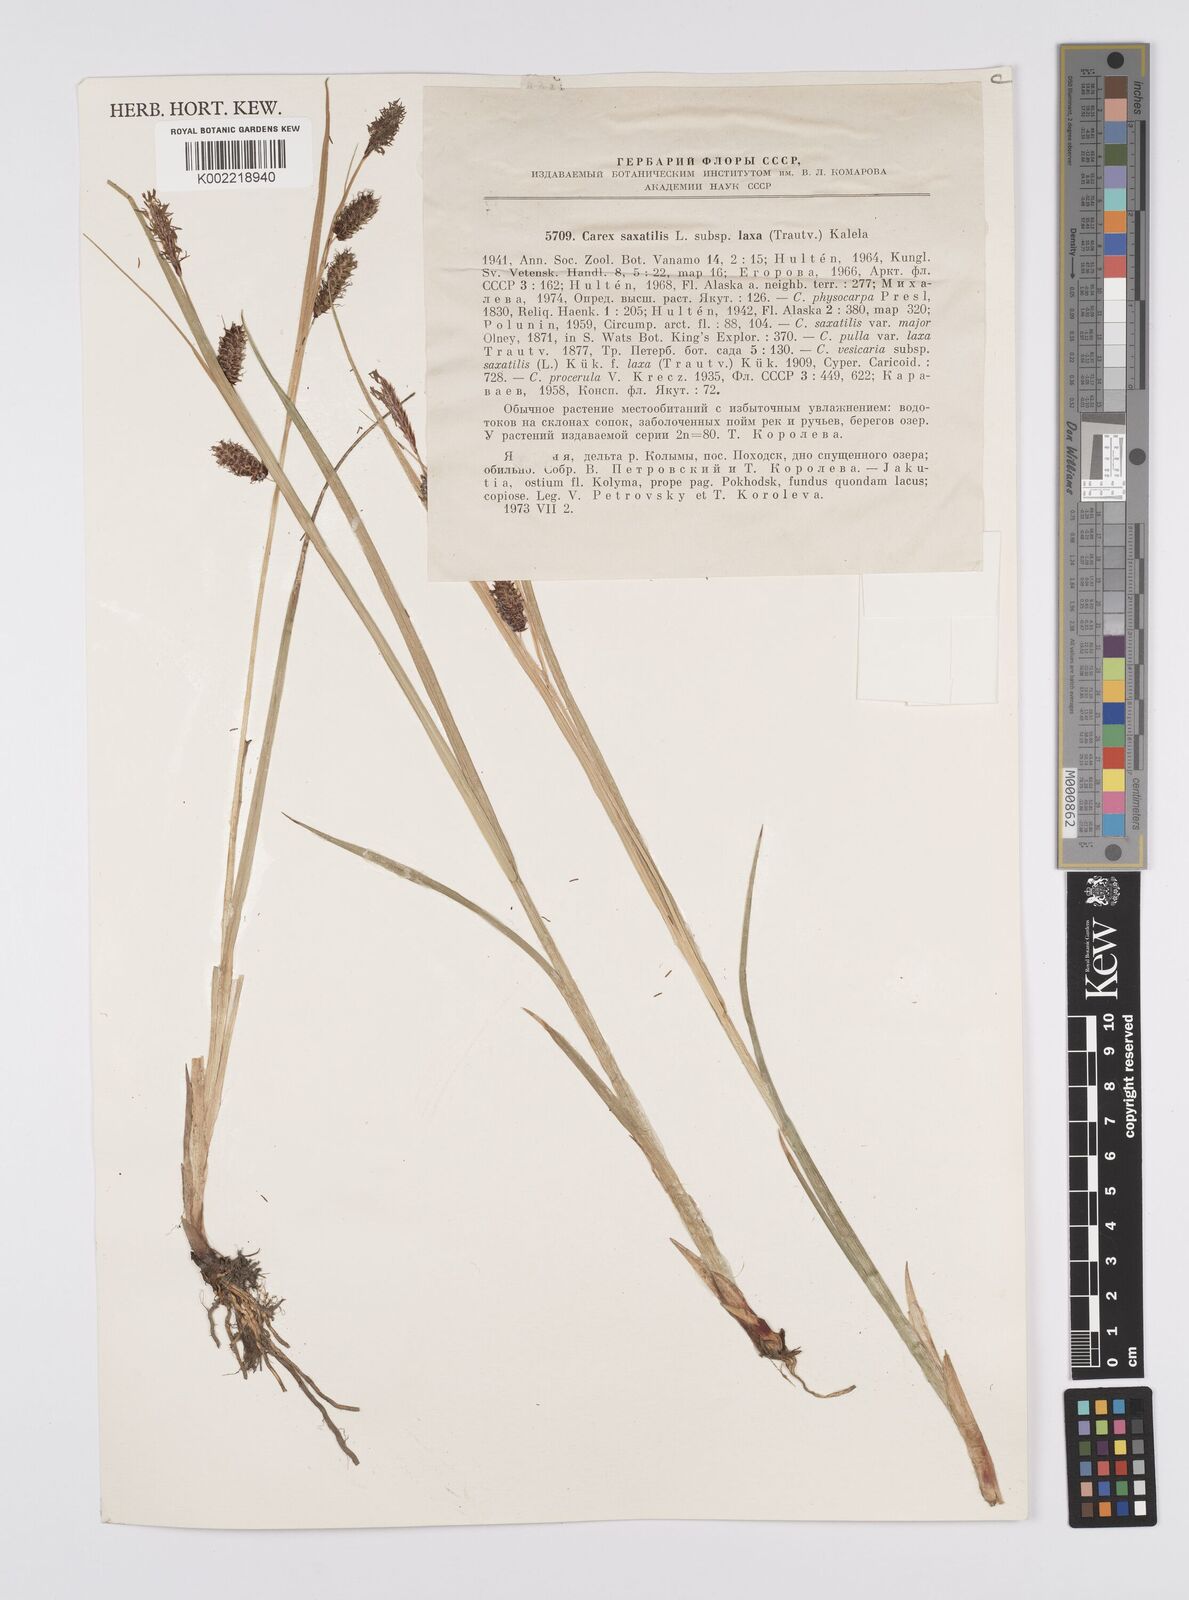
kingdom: Plantae
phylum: Tracheophyta
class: Liliopsida
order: Poales
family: Cyperaceae
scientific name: Cyperaceae
